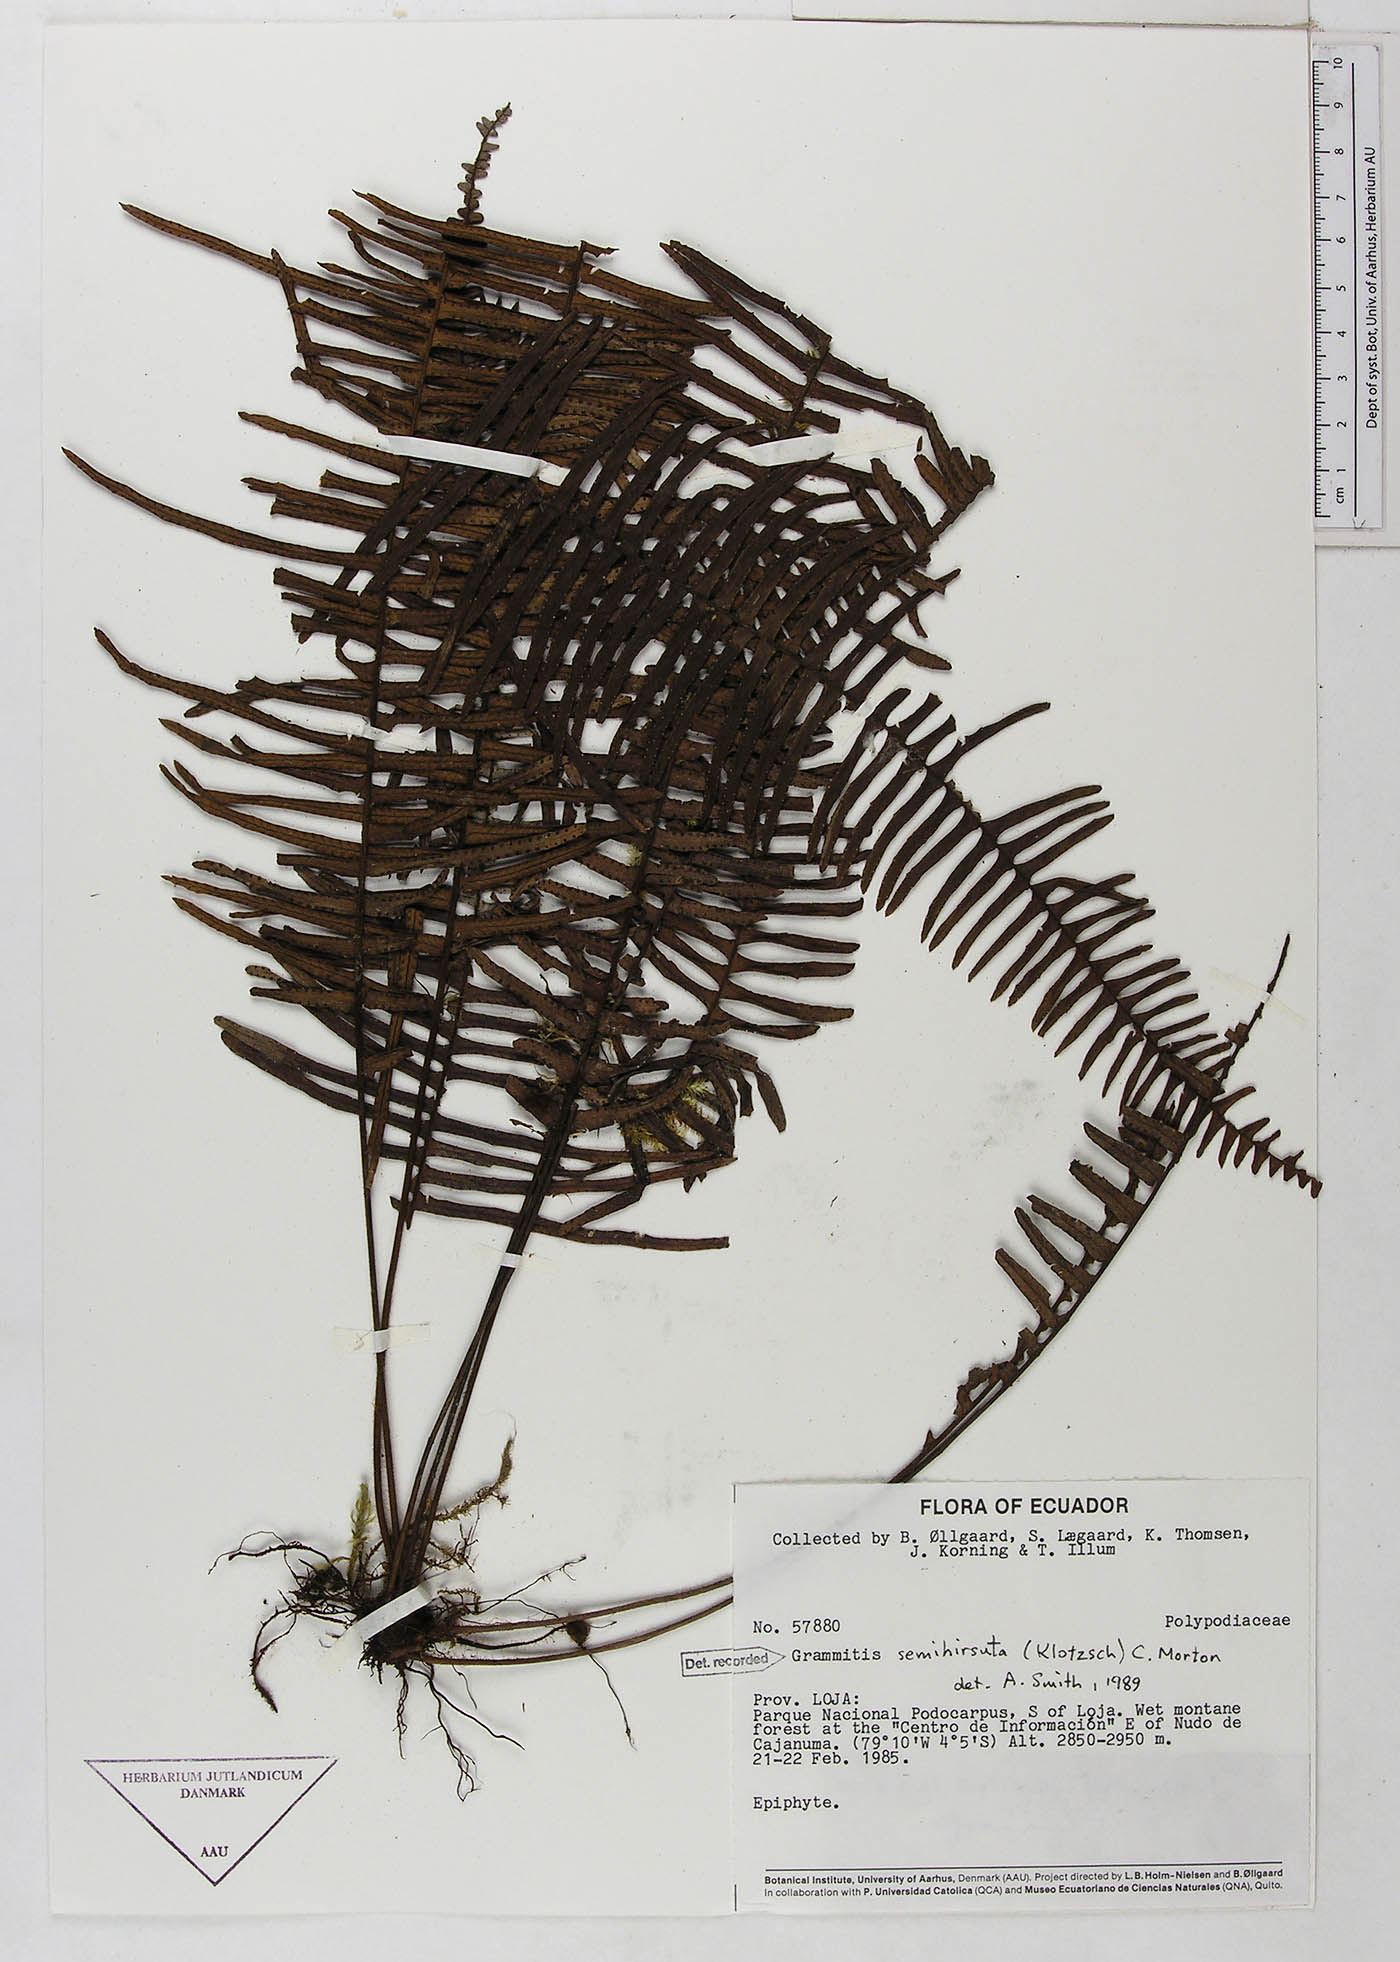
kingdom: Plantae
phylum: Tracheophyta
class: Polypodiopsida
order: Polypodiales
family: Polypodiaceae
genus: Mycopteris
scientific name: Mycopteris semihirsuta
